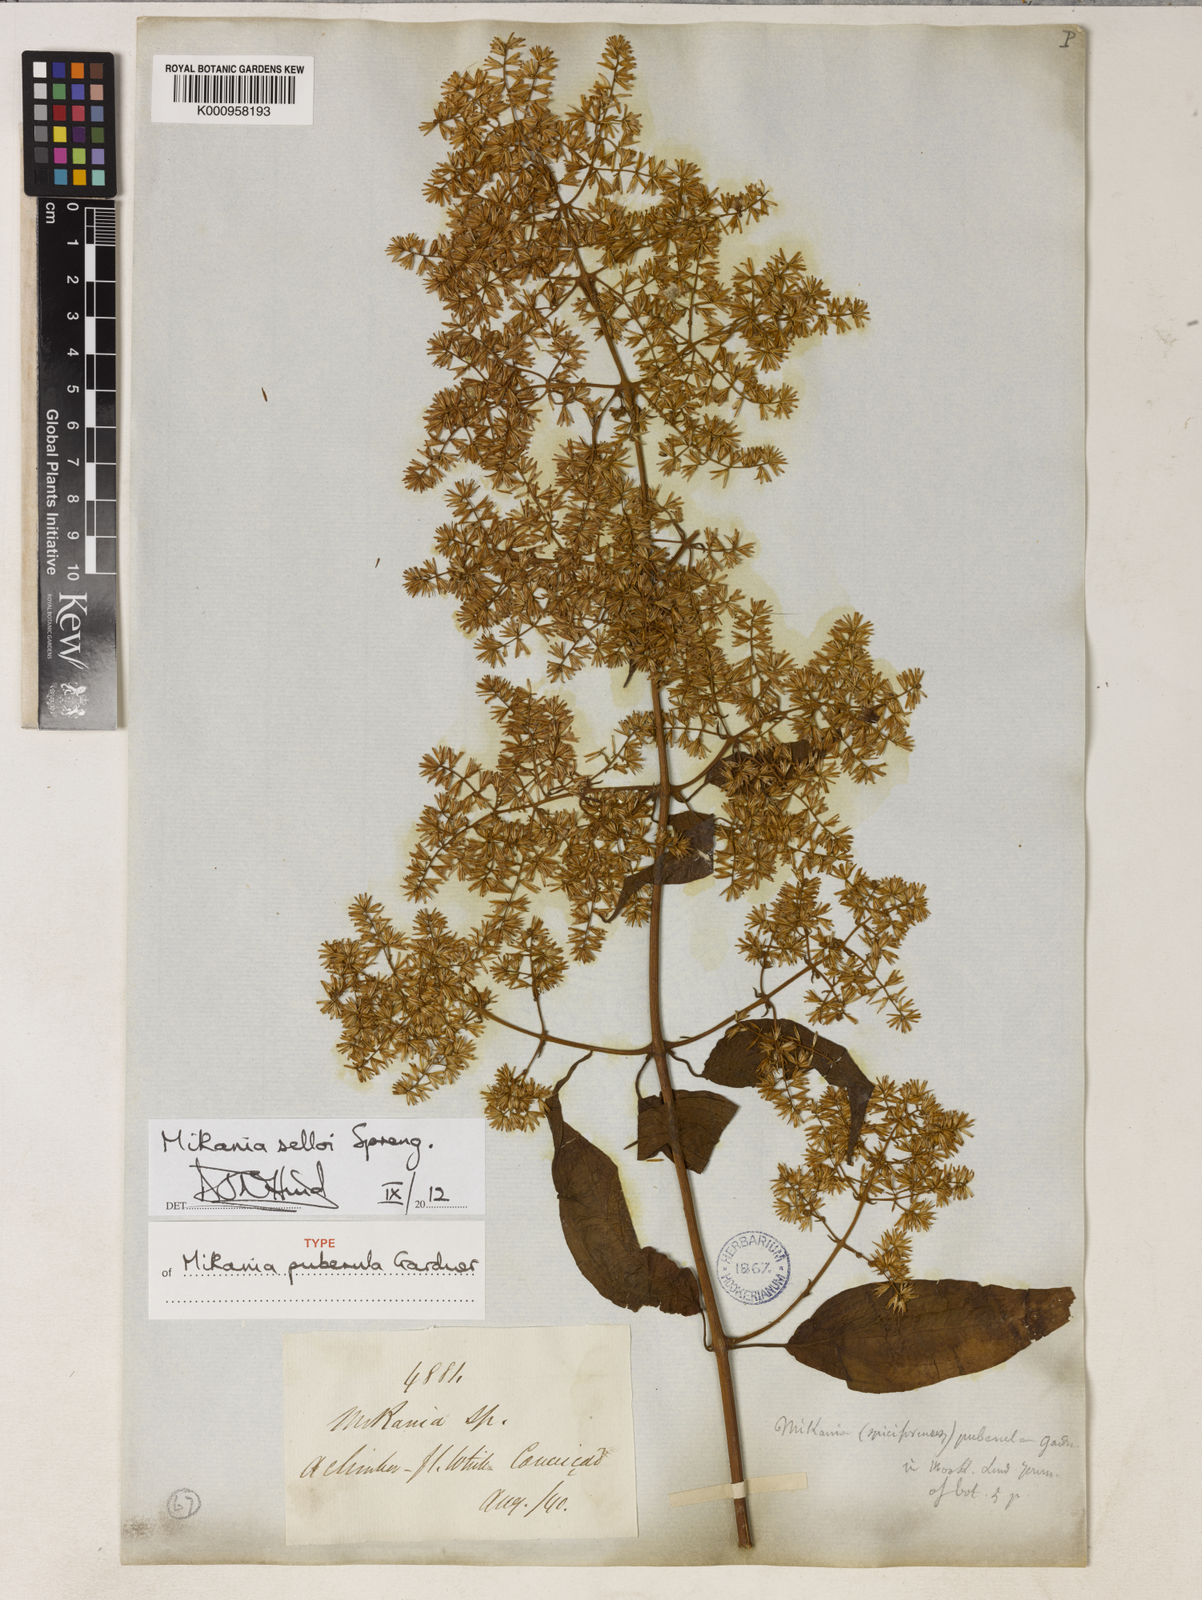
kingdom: Plantae
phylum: Tracheophyta
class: Magnoliopsida
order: Asterales
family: Asteraceae
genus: Mikania
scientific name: Mikania selloi
